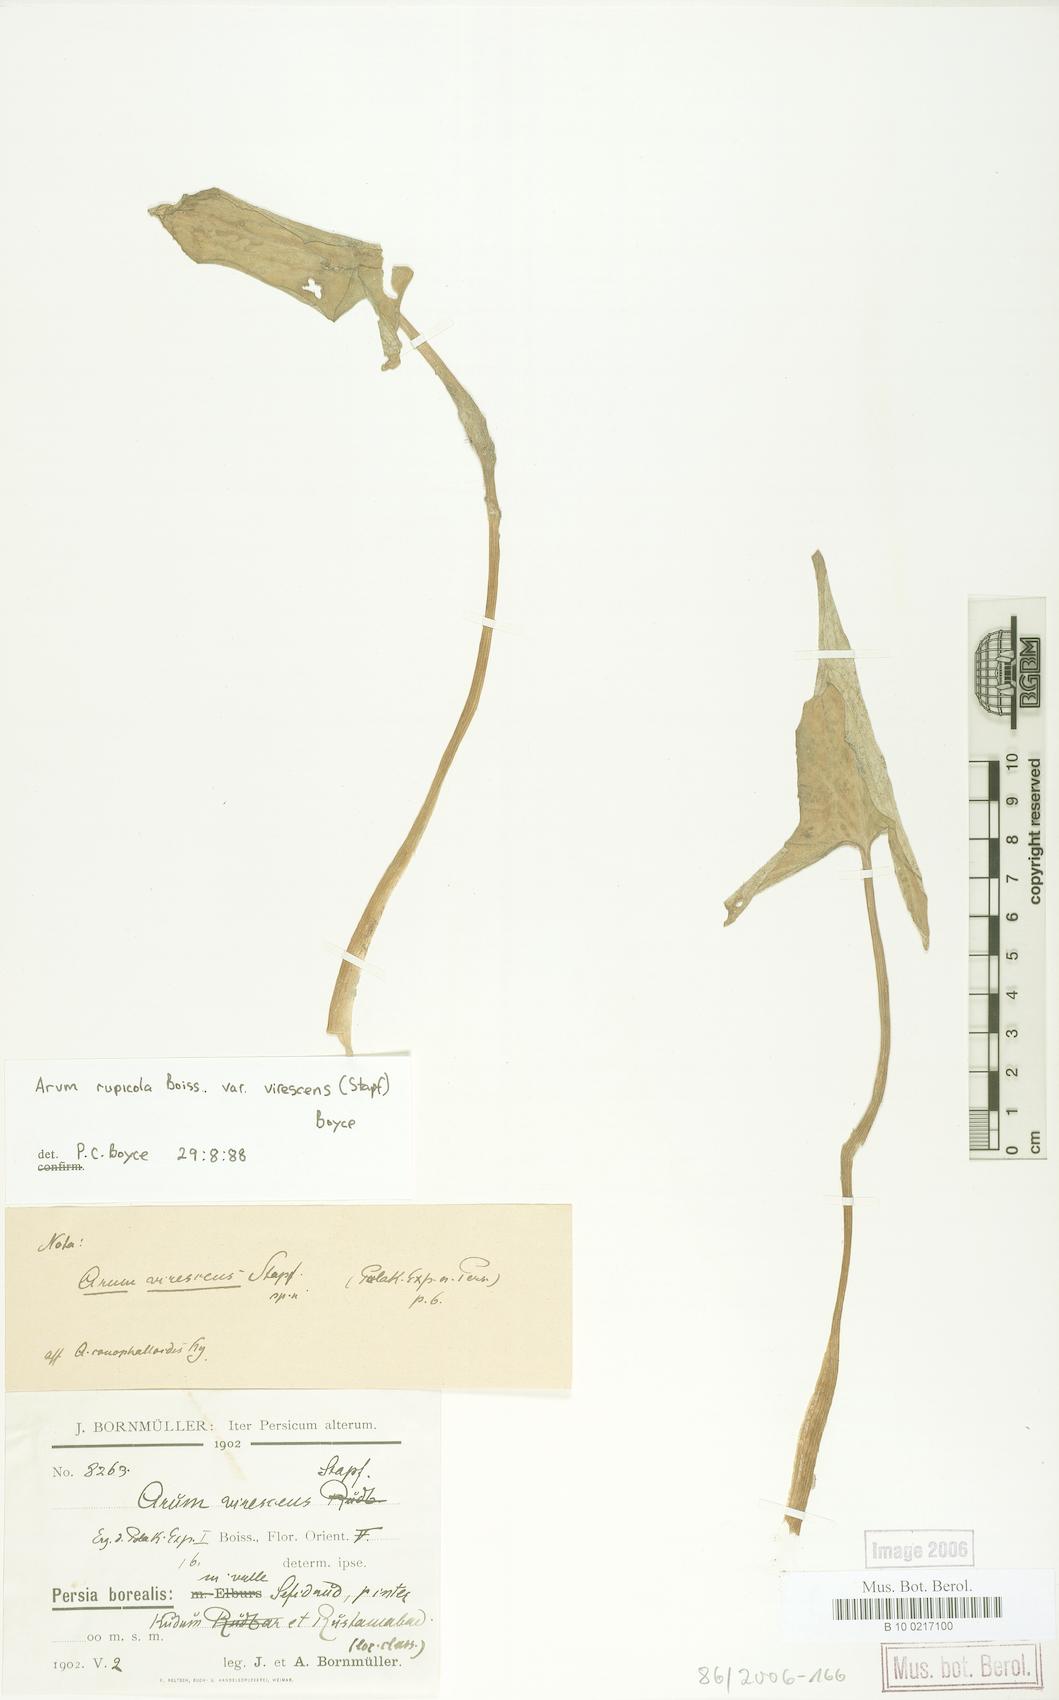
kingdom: Plantae
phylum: Tracheophyta
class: Liliopsida
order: Alismatales
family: Araceae
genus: Arum
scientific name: Arum rupicola
